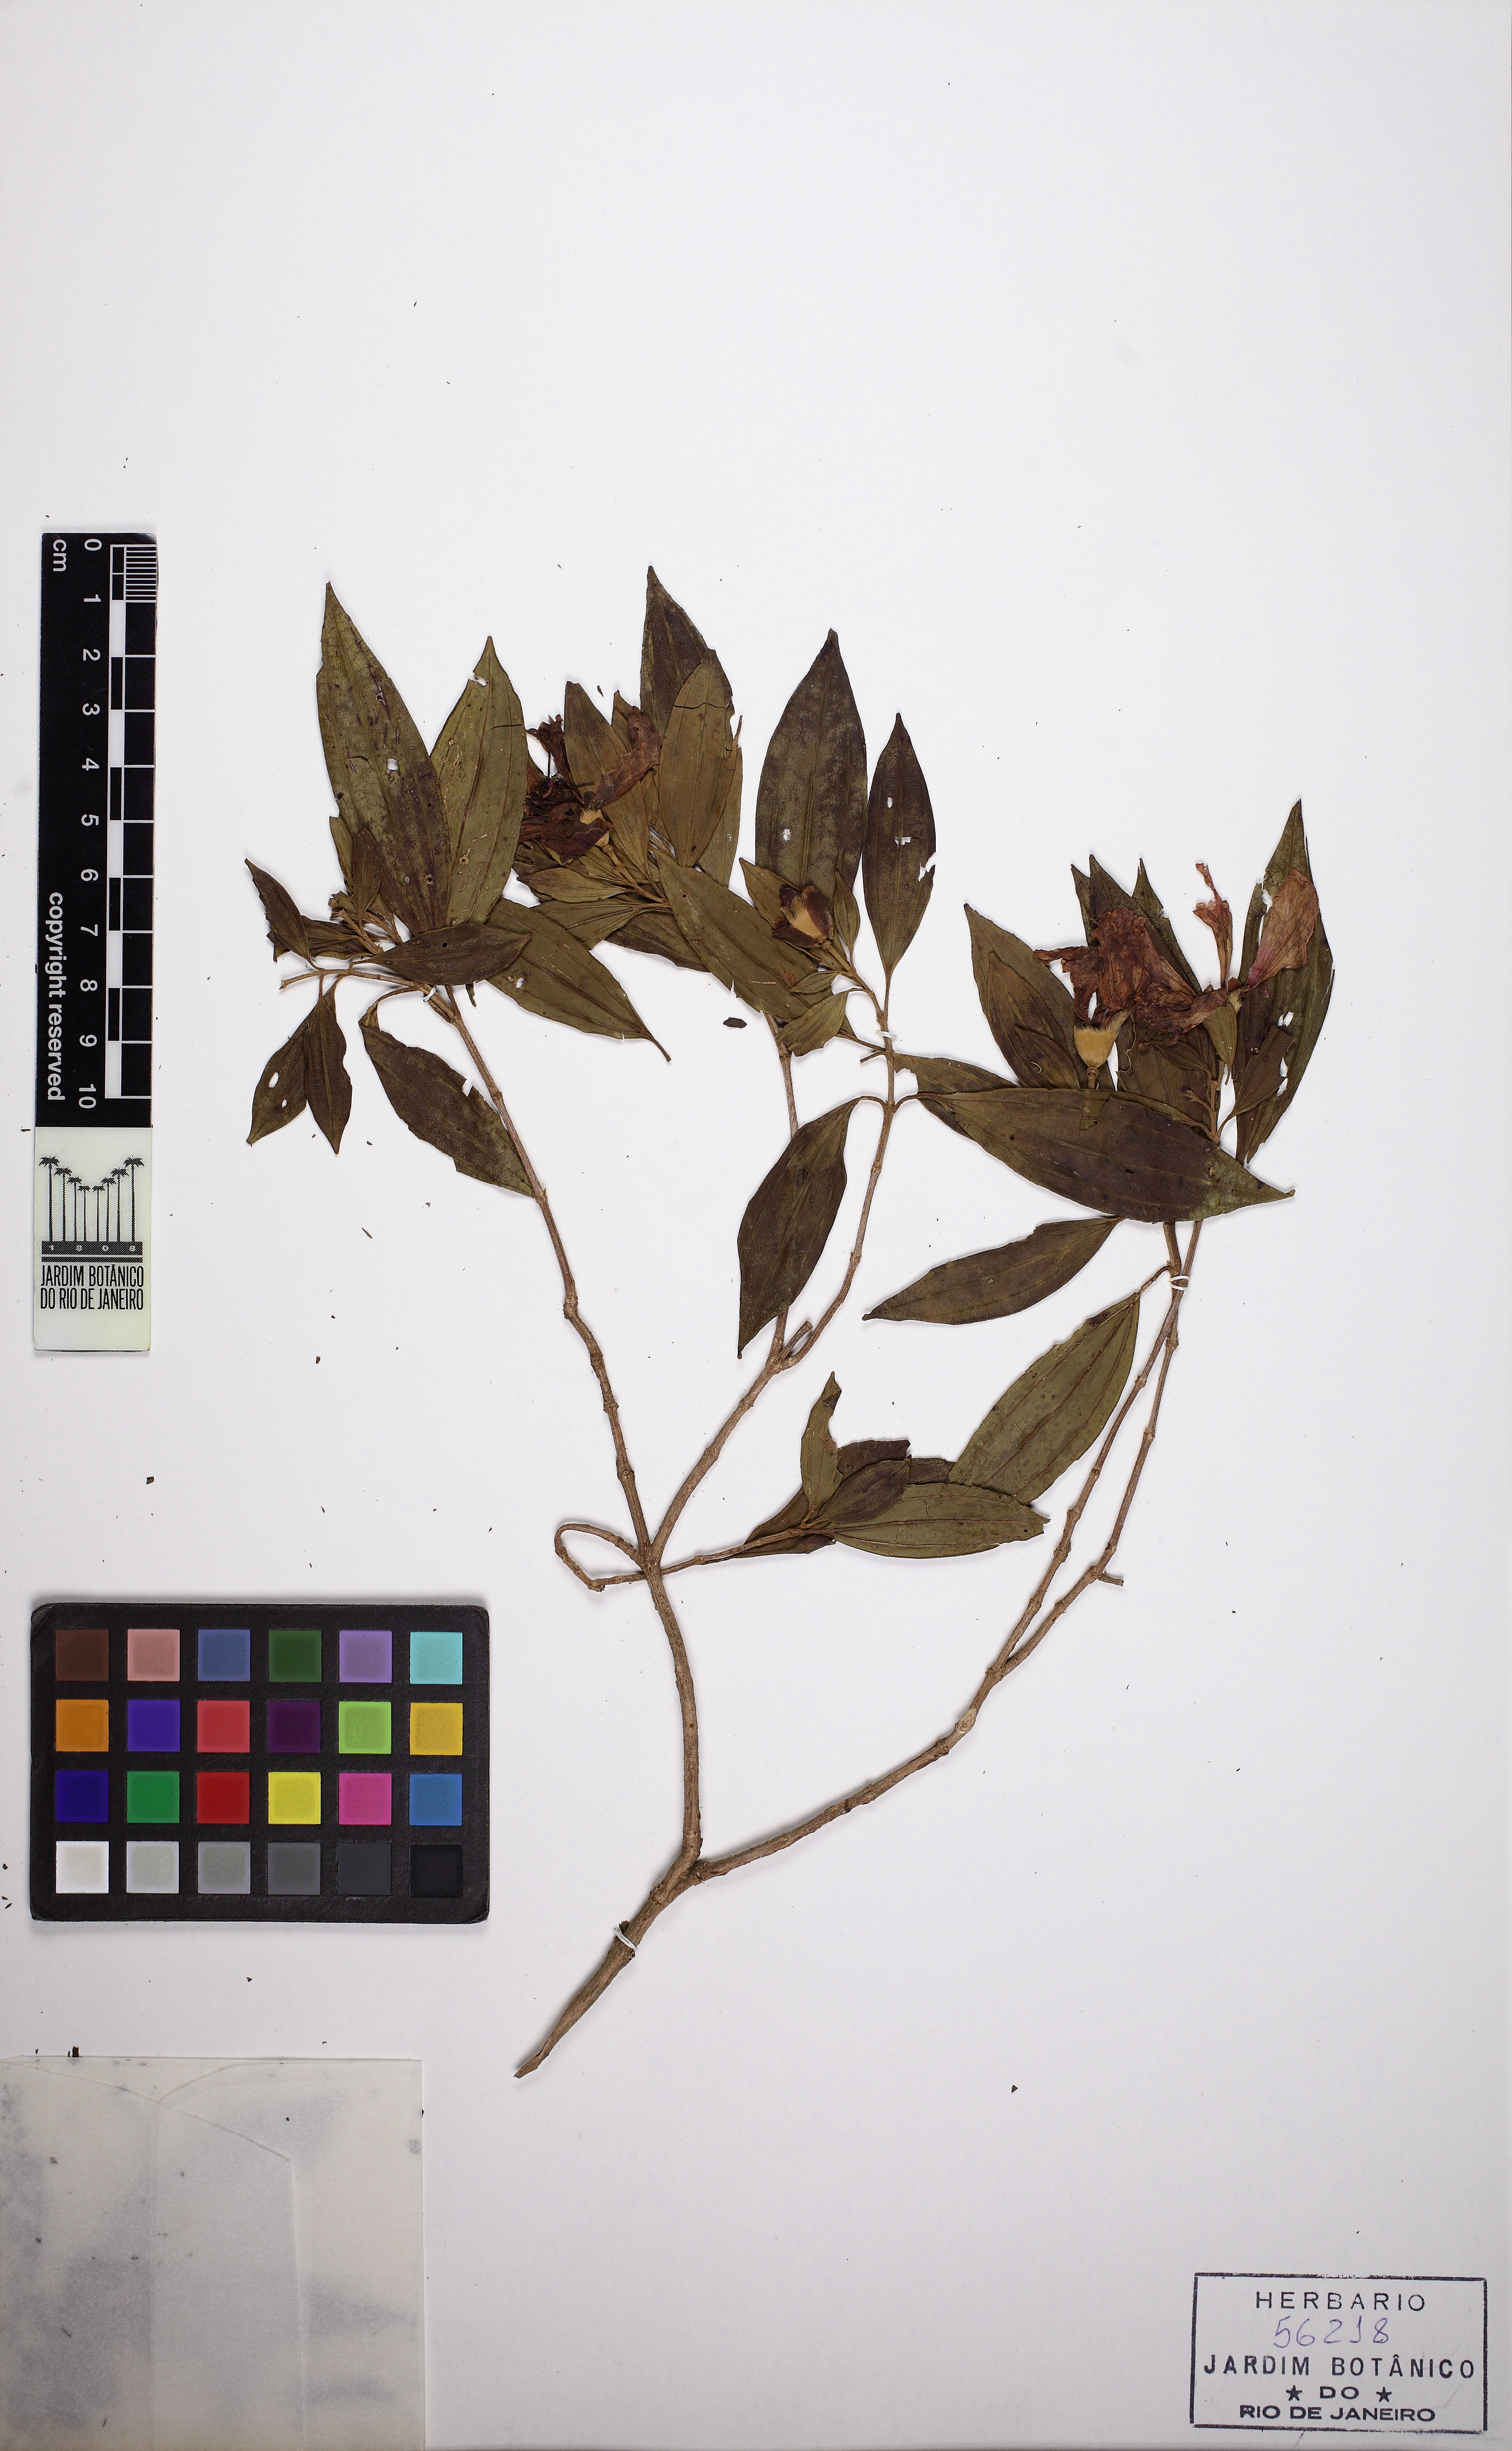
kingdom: Plantae
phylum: Tracheophyta
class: Magnoliopsida
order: Myrtales
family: Melastomataceae
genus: Pleroma
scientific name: Pleroma ochypetalum
